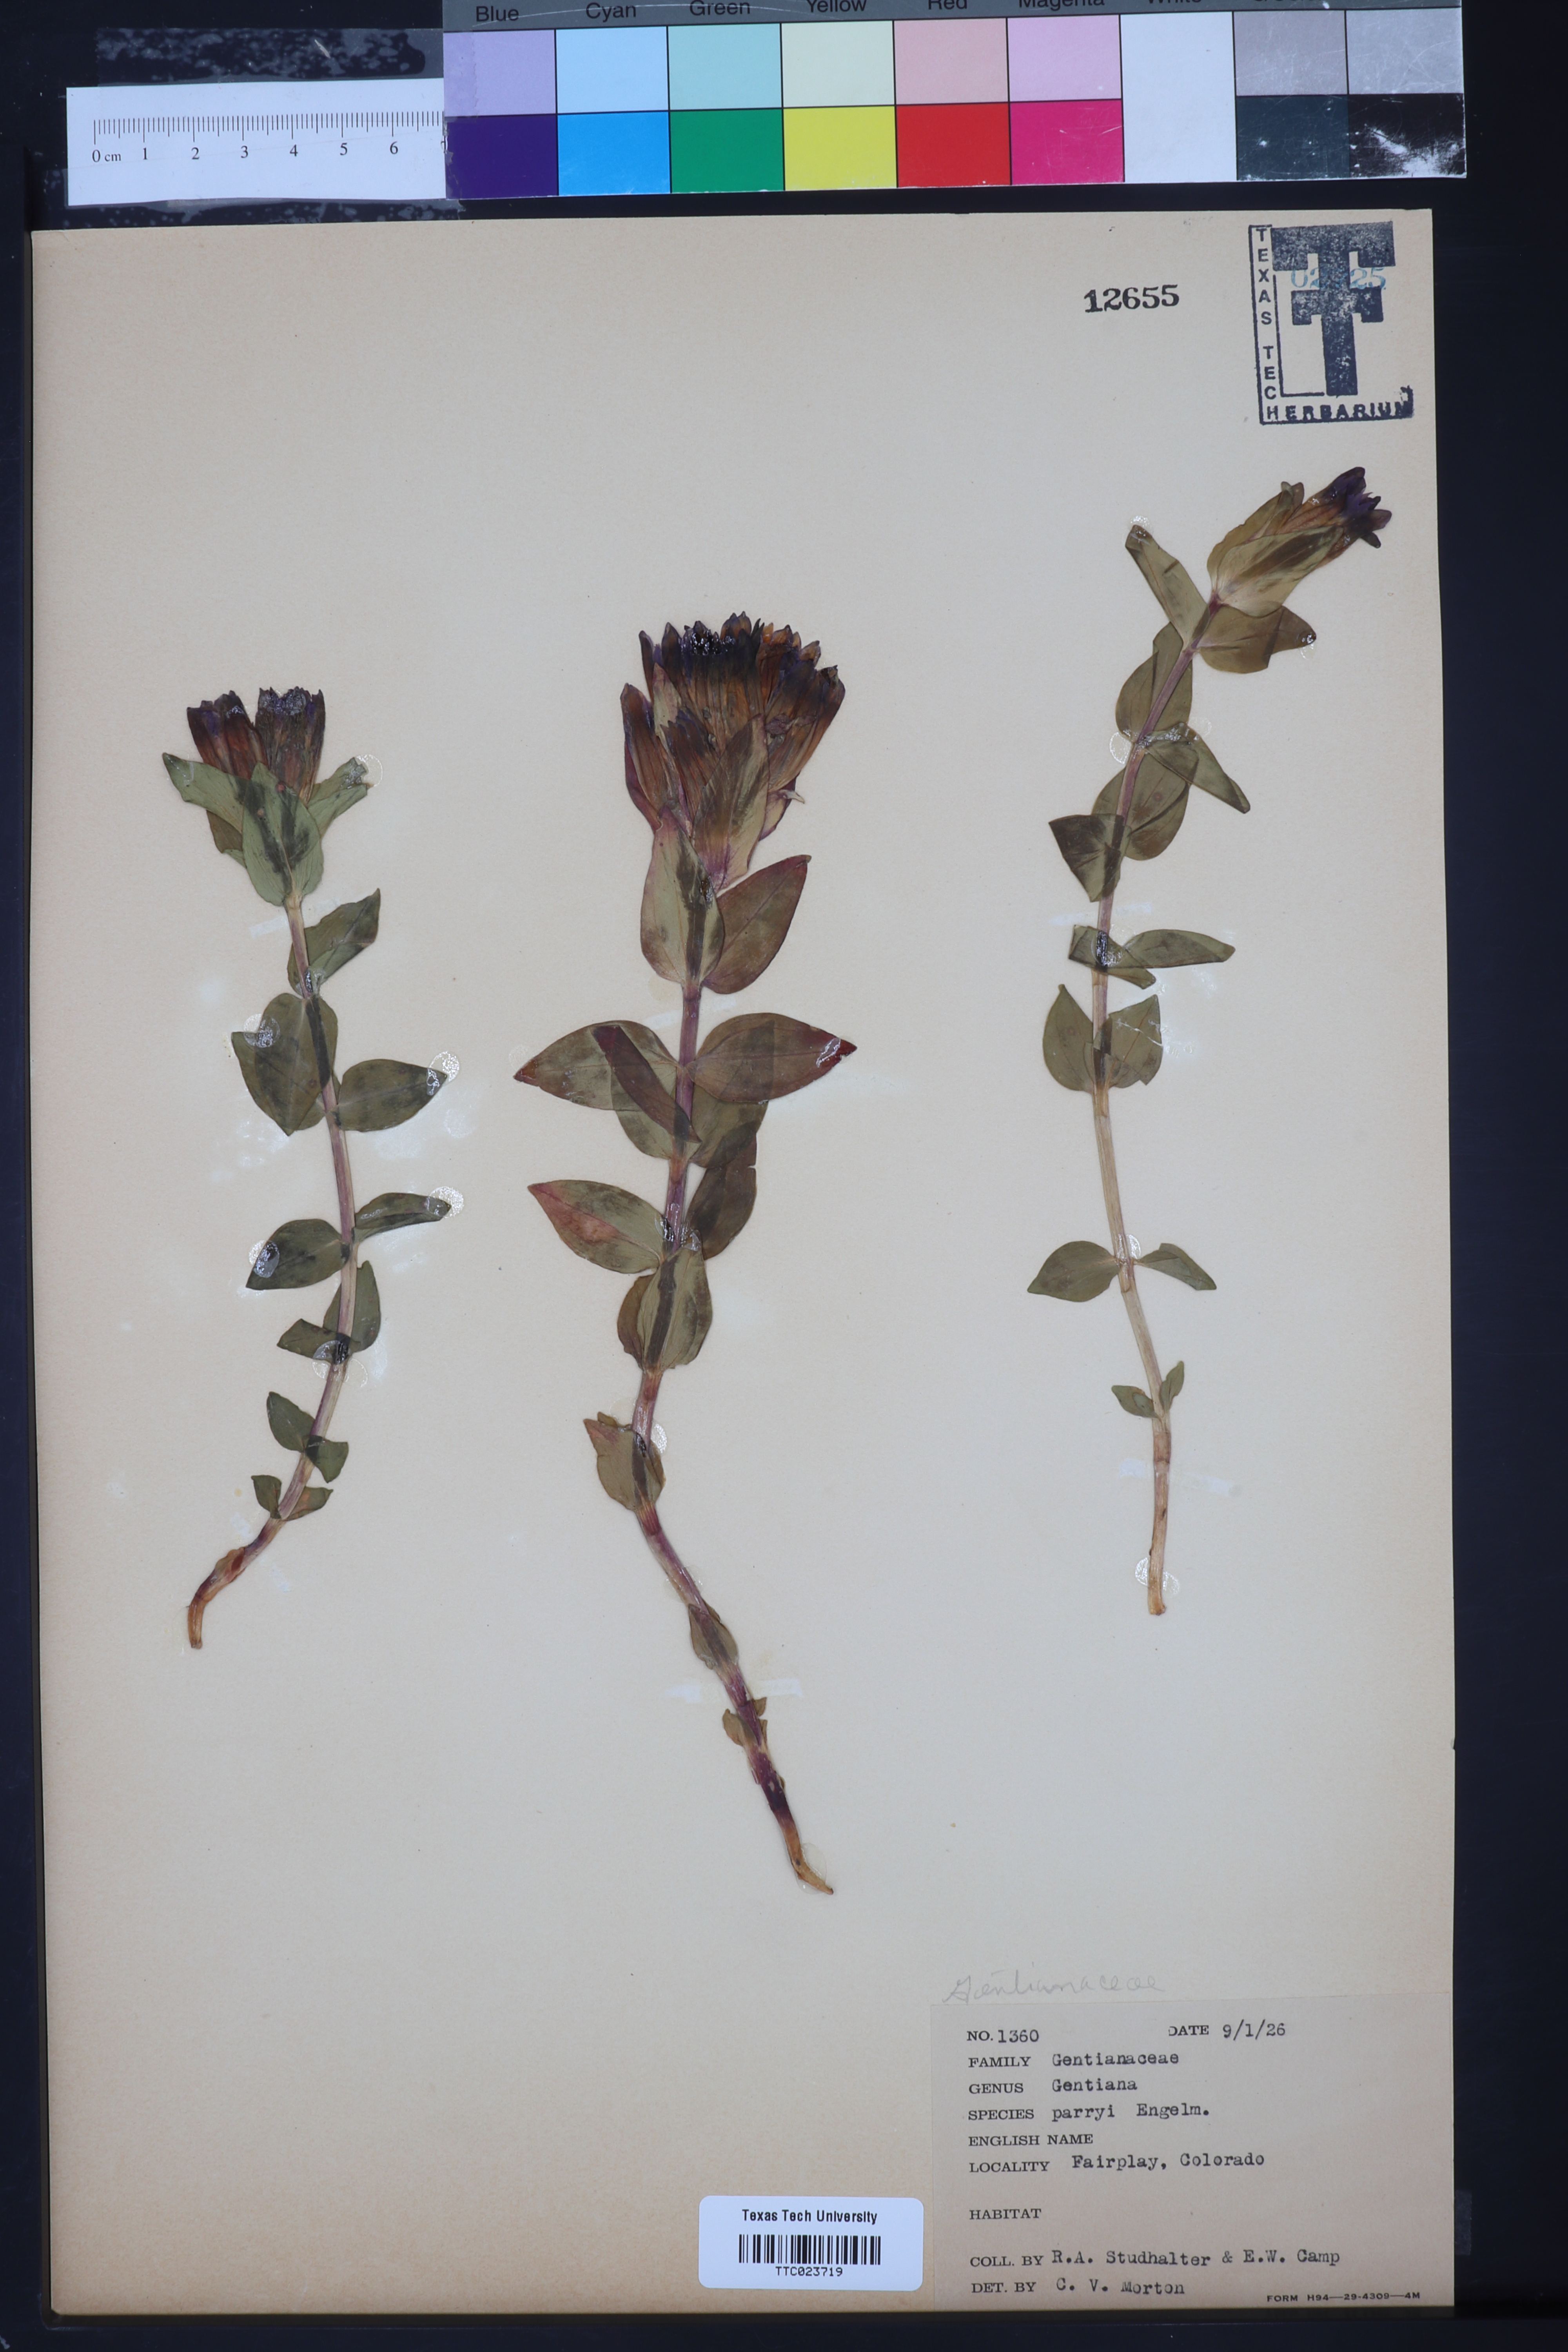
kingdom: Plantae
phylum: Tracheophyta
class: Magnoliopsida
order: Gentianales
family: Gentianaceae
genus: Gentiana
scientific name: Gentiana parryi
